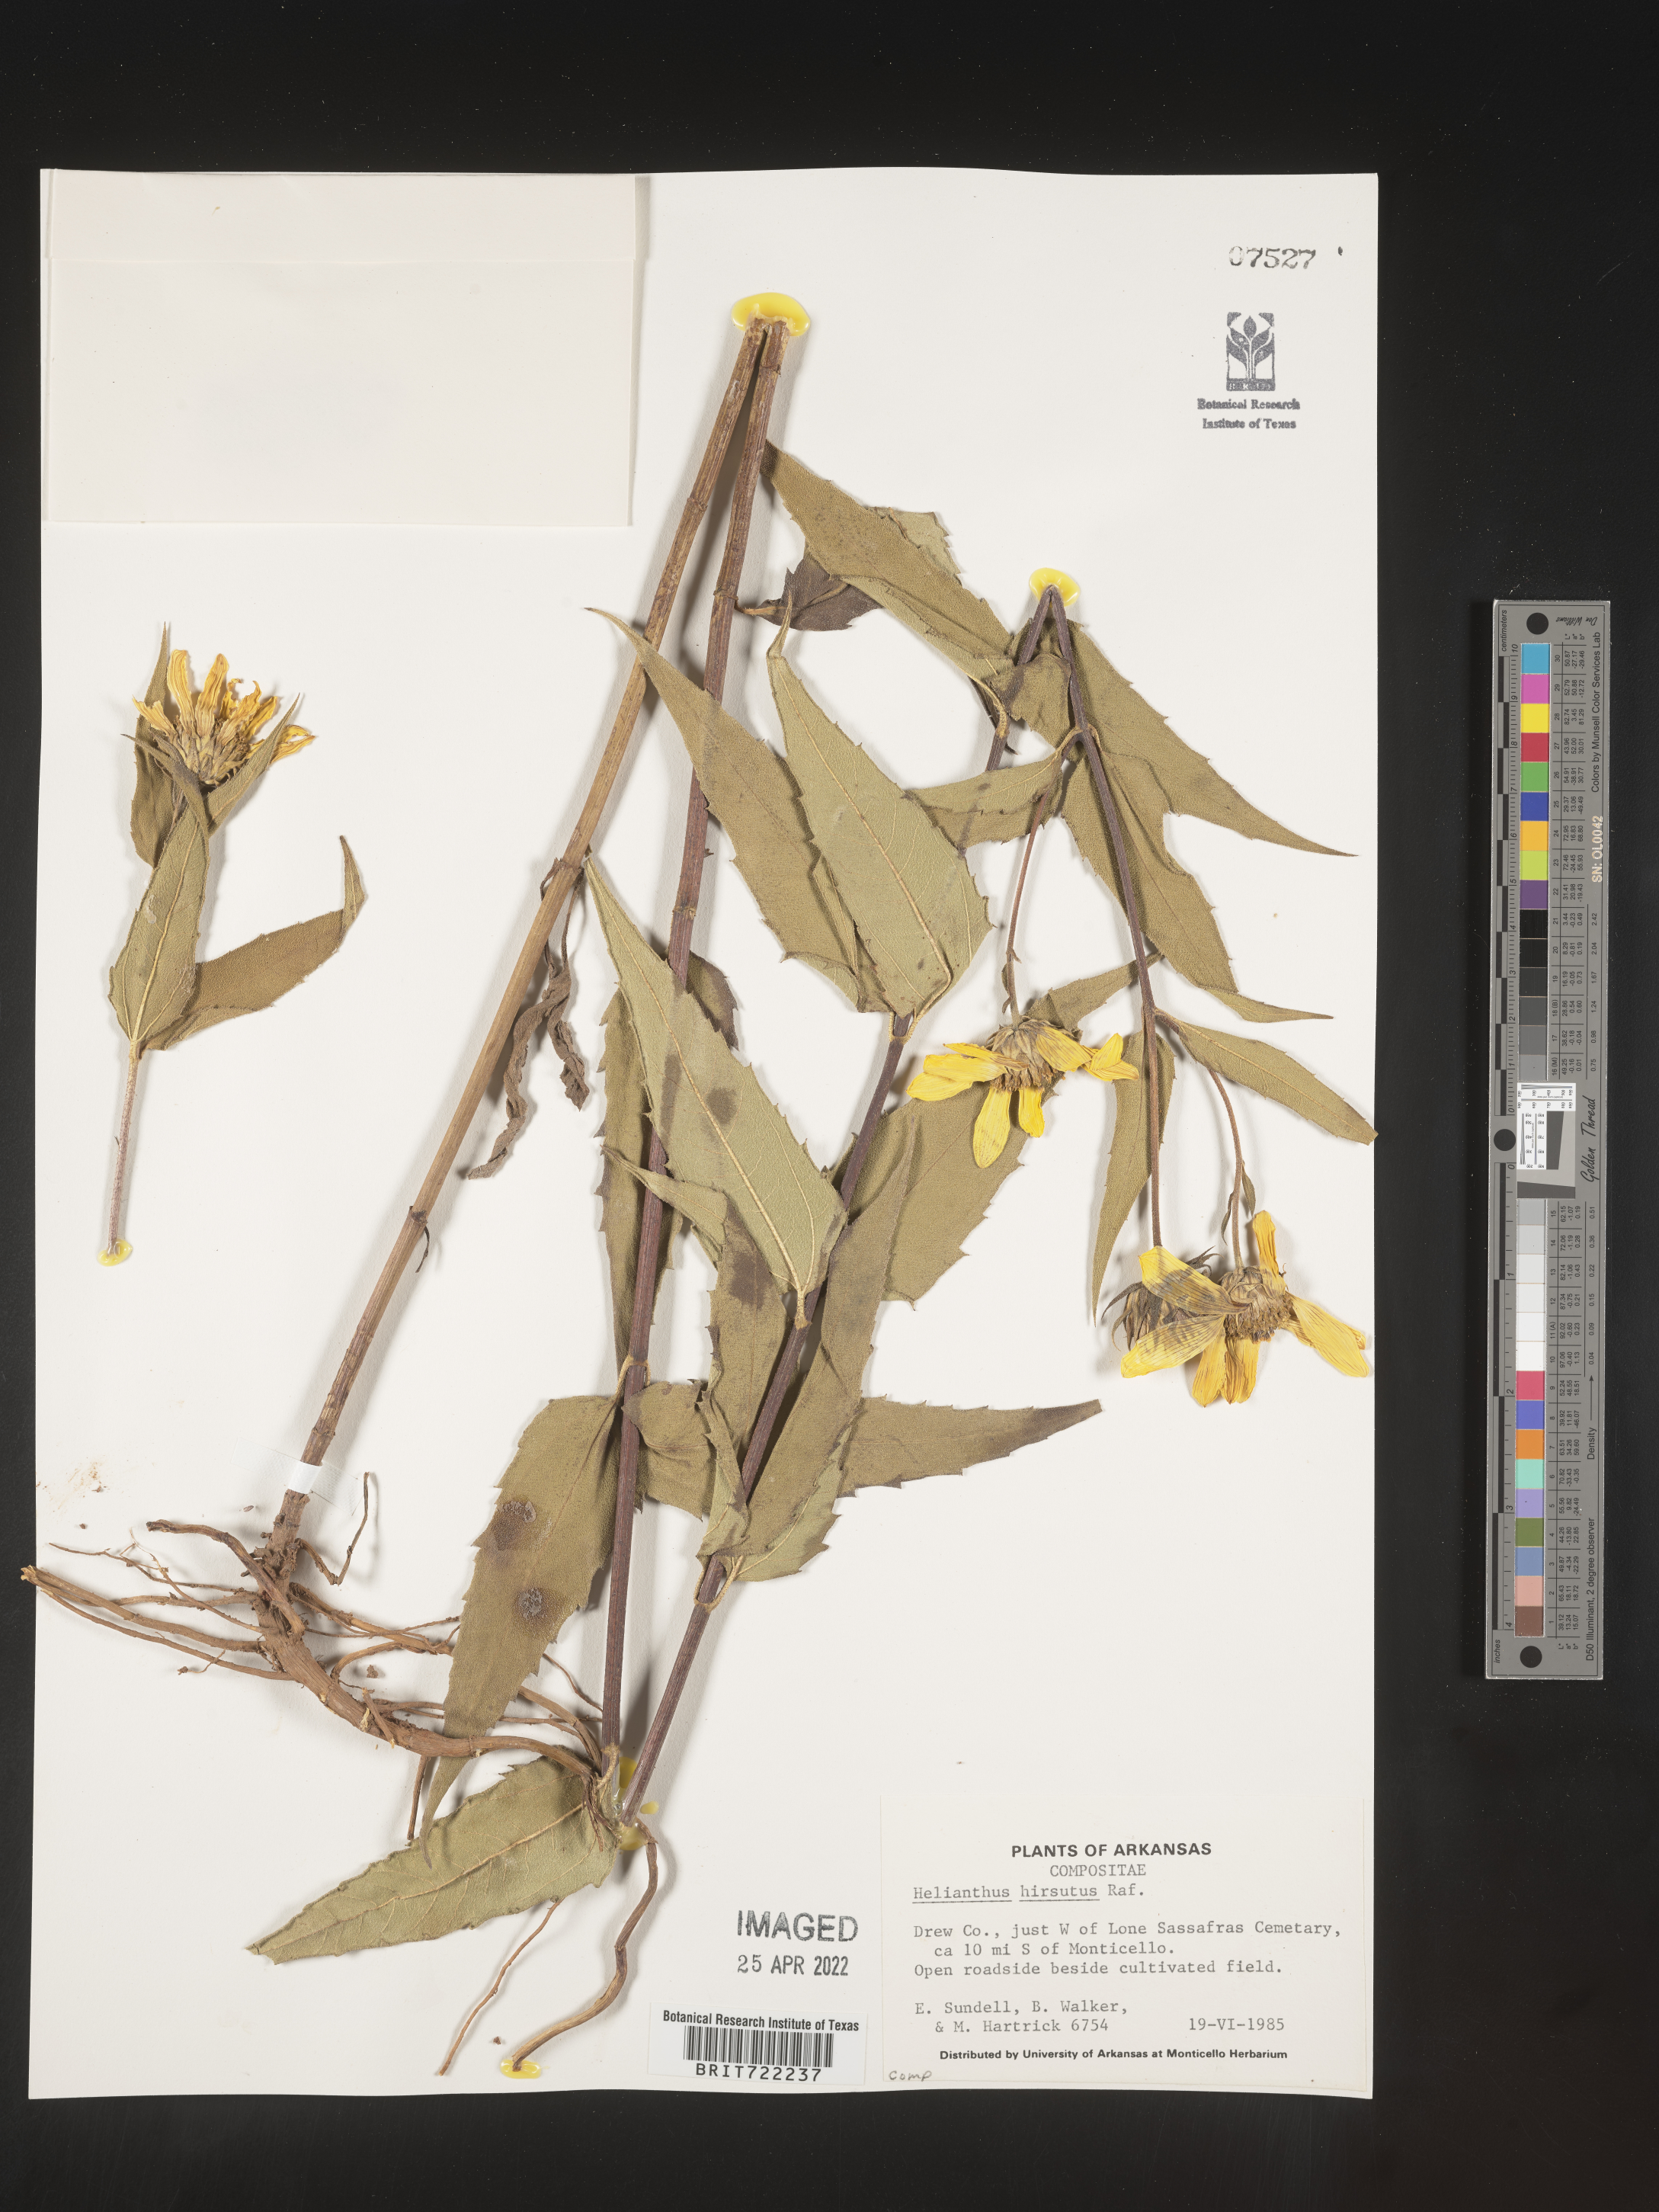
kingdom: Plantae
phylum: Tracheophyta
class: Magnoliopsida
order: Asterales
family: Asteraceae
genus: Helianthus
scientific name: Helianthus hirsutus
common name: Hairy sunflower
